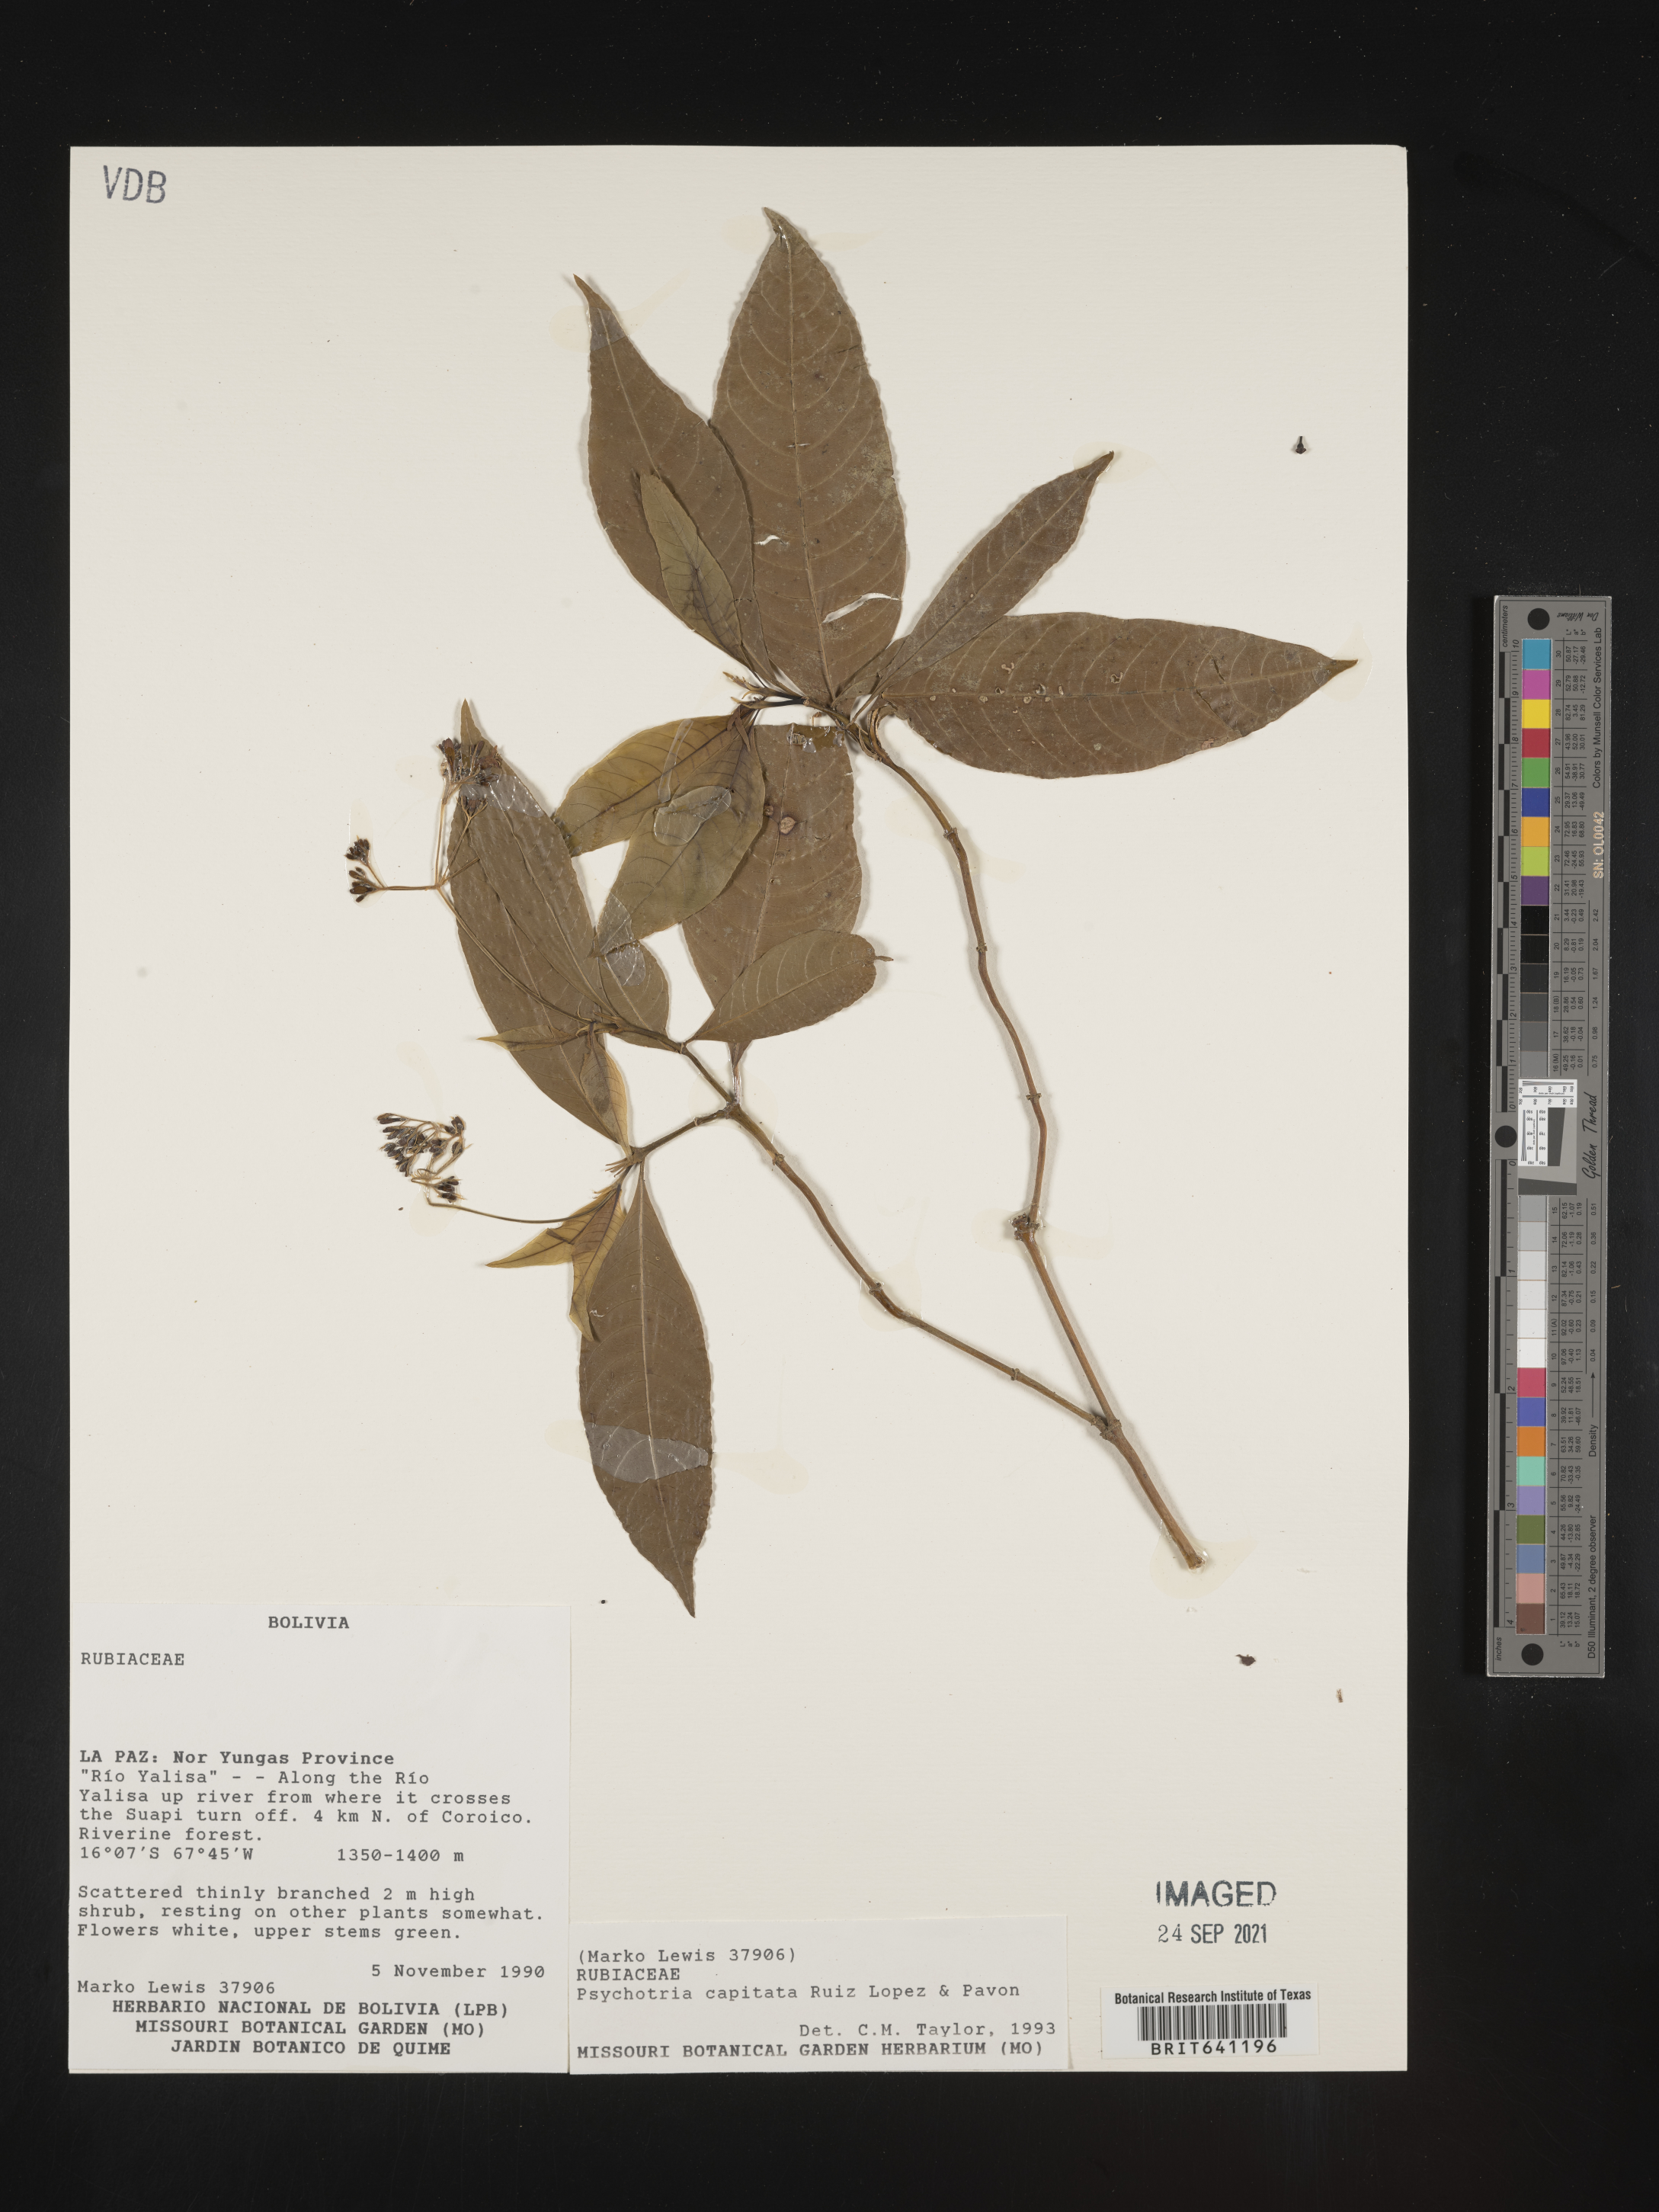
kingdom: Plantae
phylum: Tracheophyta
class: Magnoliopsida
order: Gentianales
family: Rubiaceae
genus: Psychotria
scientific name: Psychotria
